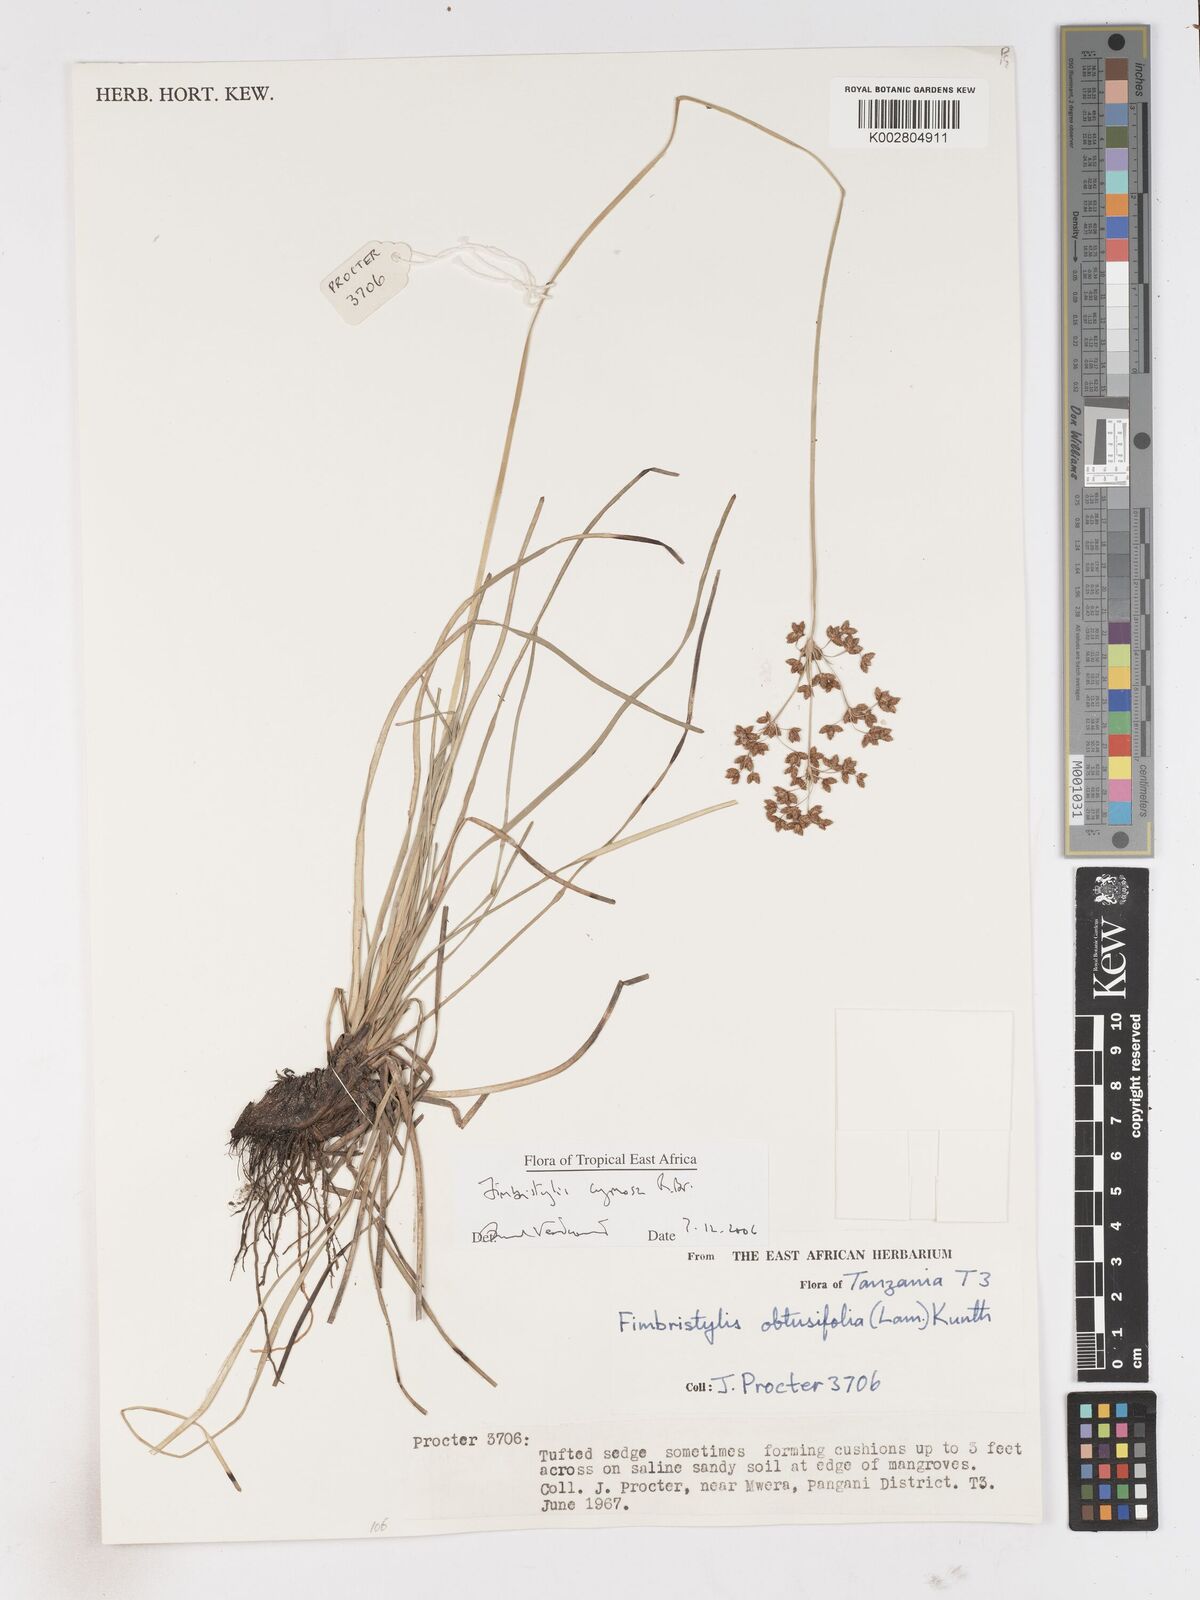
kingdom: Plantae
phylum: Tracheophyta
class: Liliopsida
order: Poales
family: Cyperaceae
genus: Fimbristylis
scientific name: Fimbristylis cymosa
